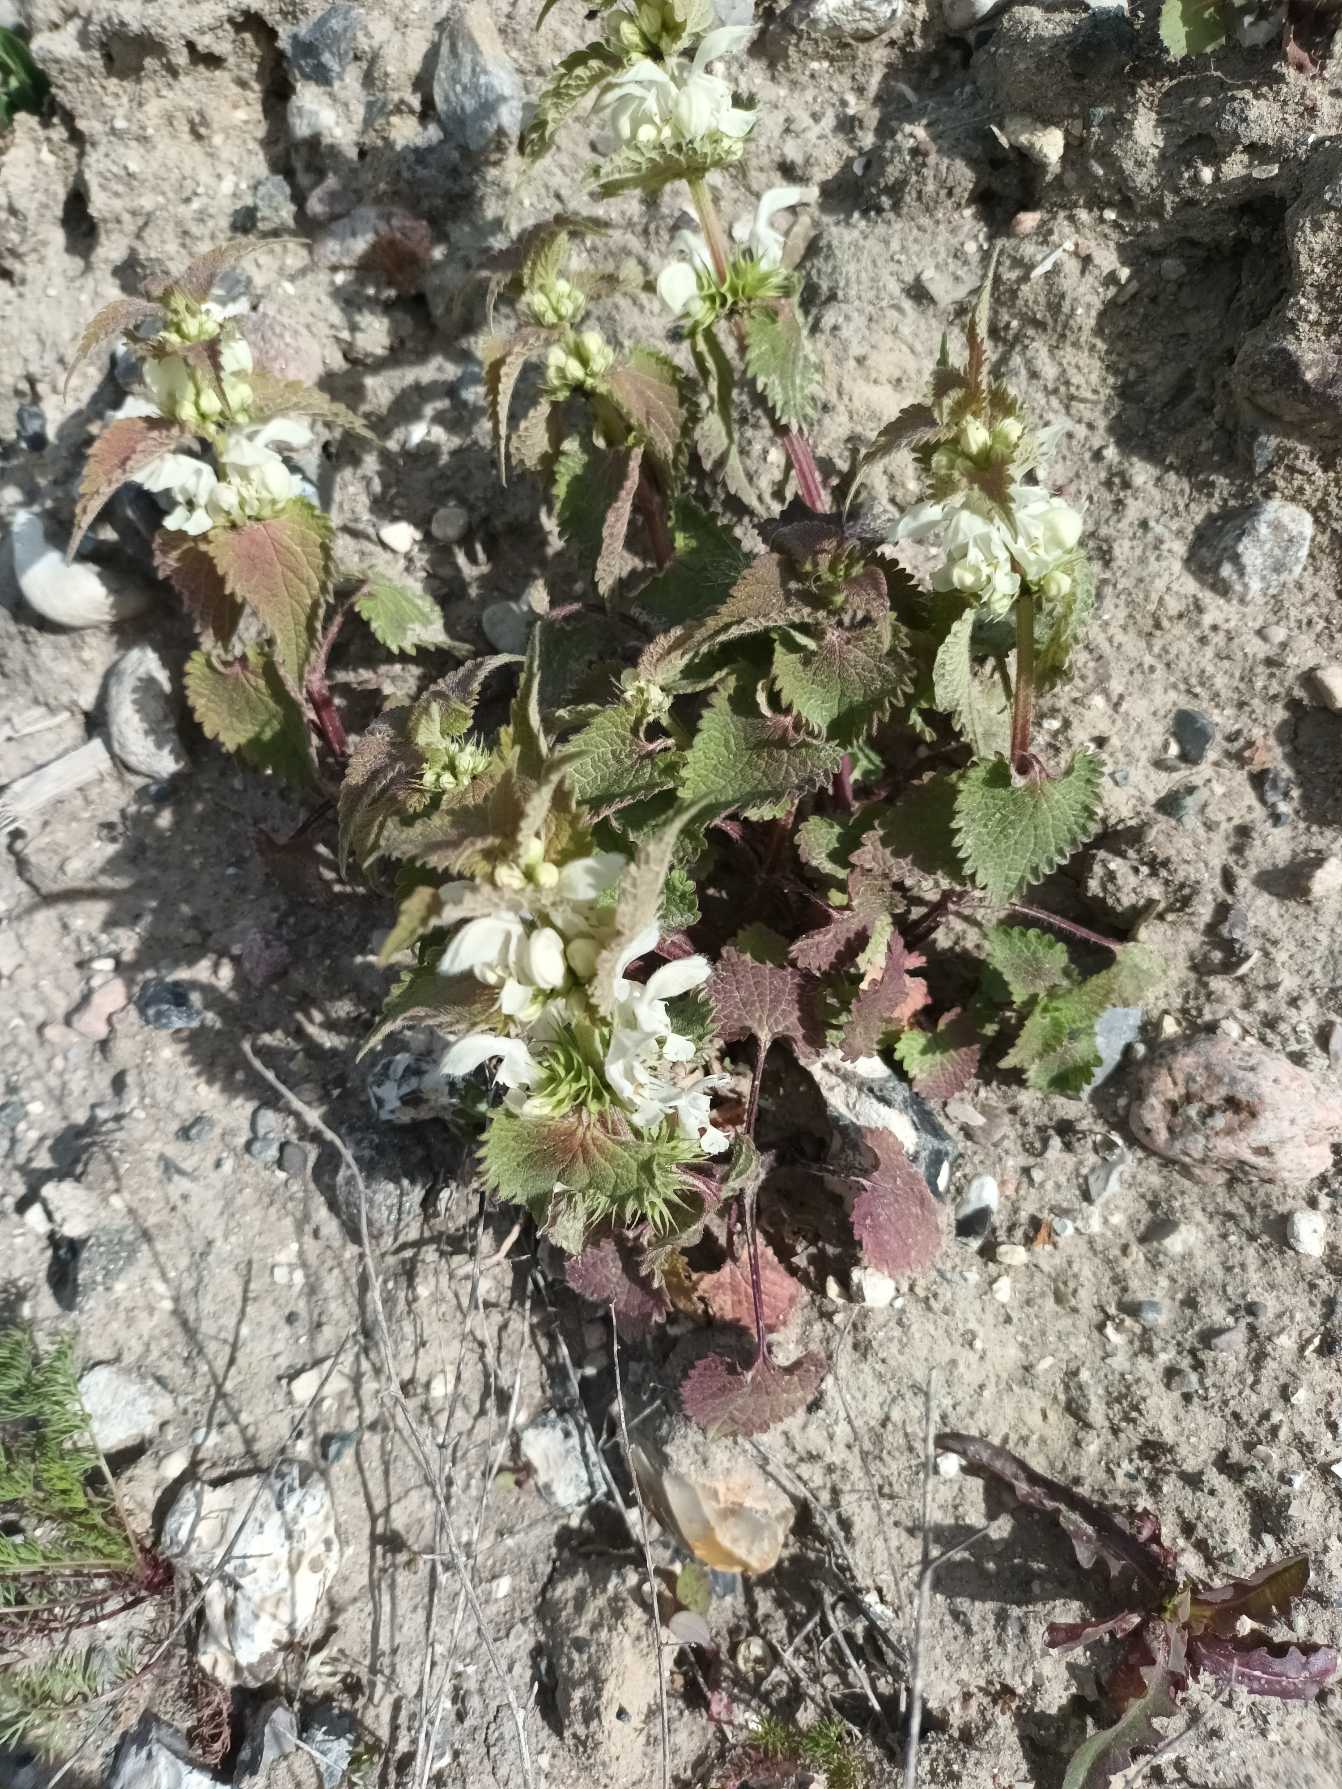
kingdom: Plantae
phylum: Tracheophyta
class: Magnoliopsida
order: Lamiales
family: Lamiaceae
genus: Lamium
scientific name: Lamium album
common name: Døvnælde
